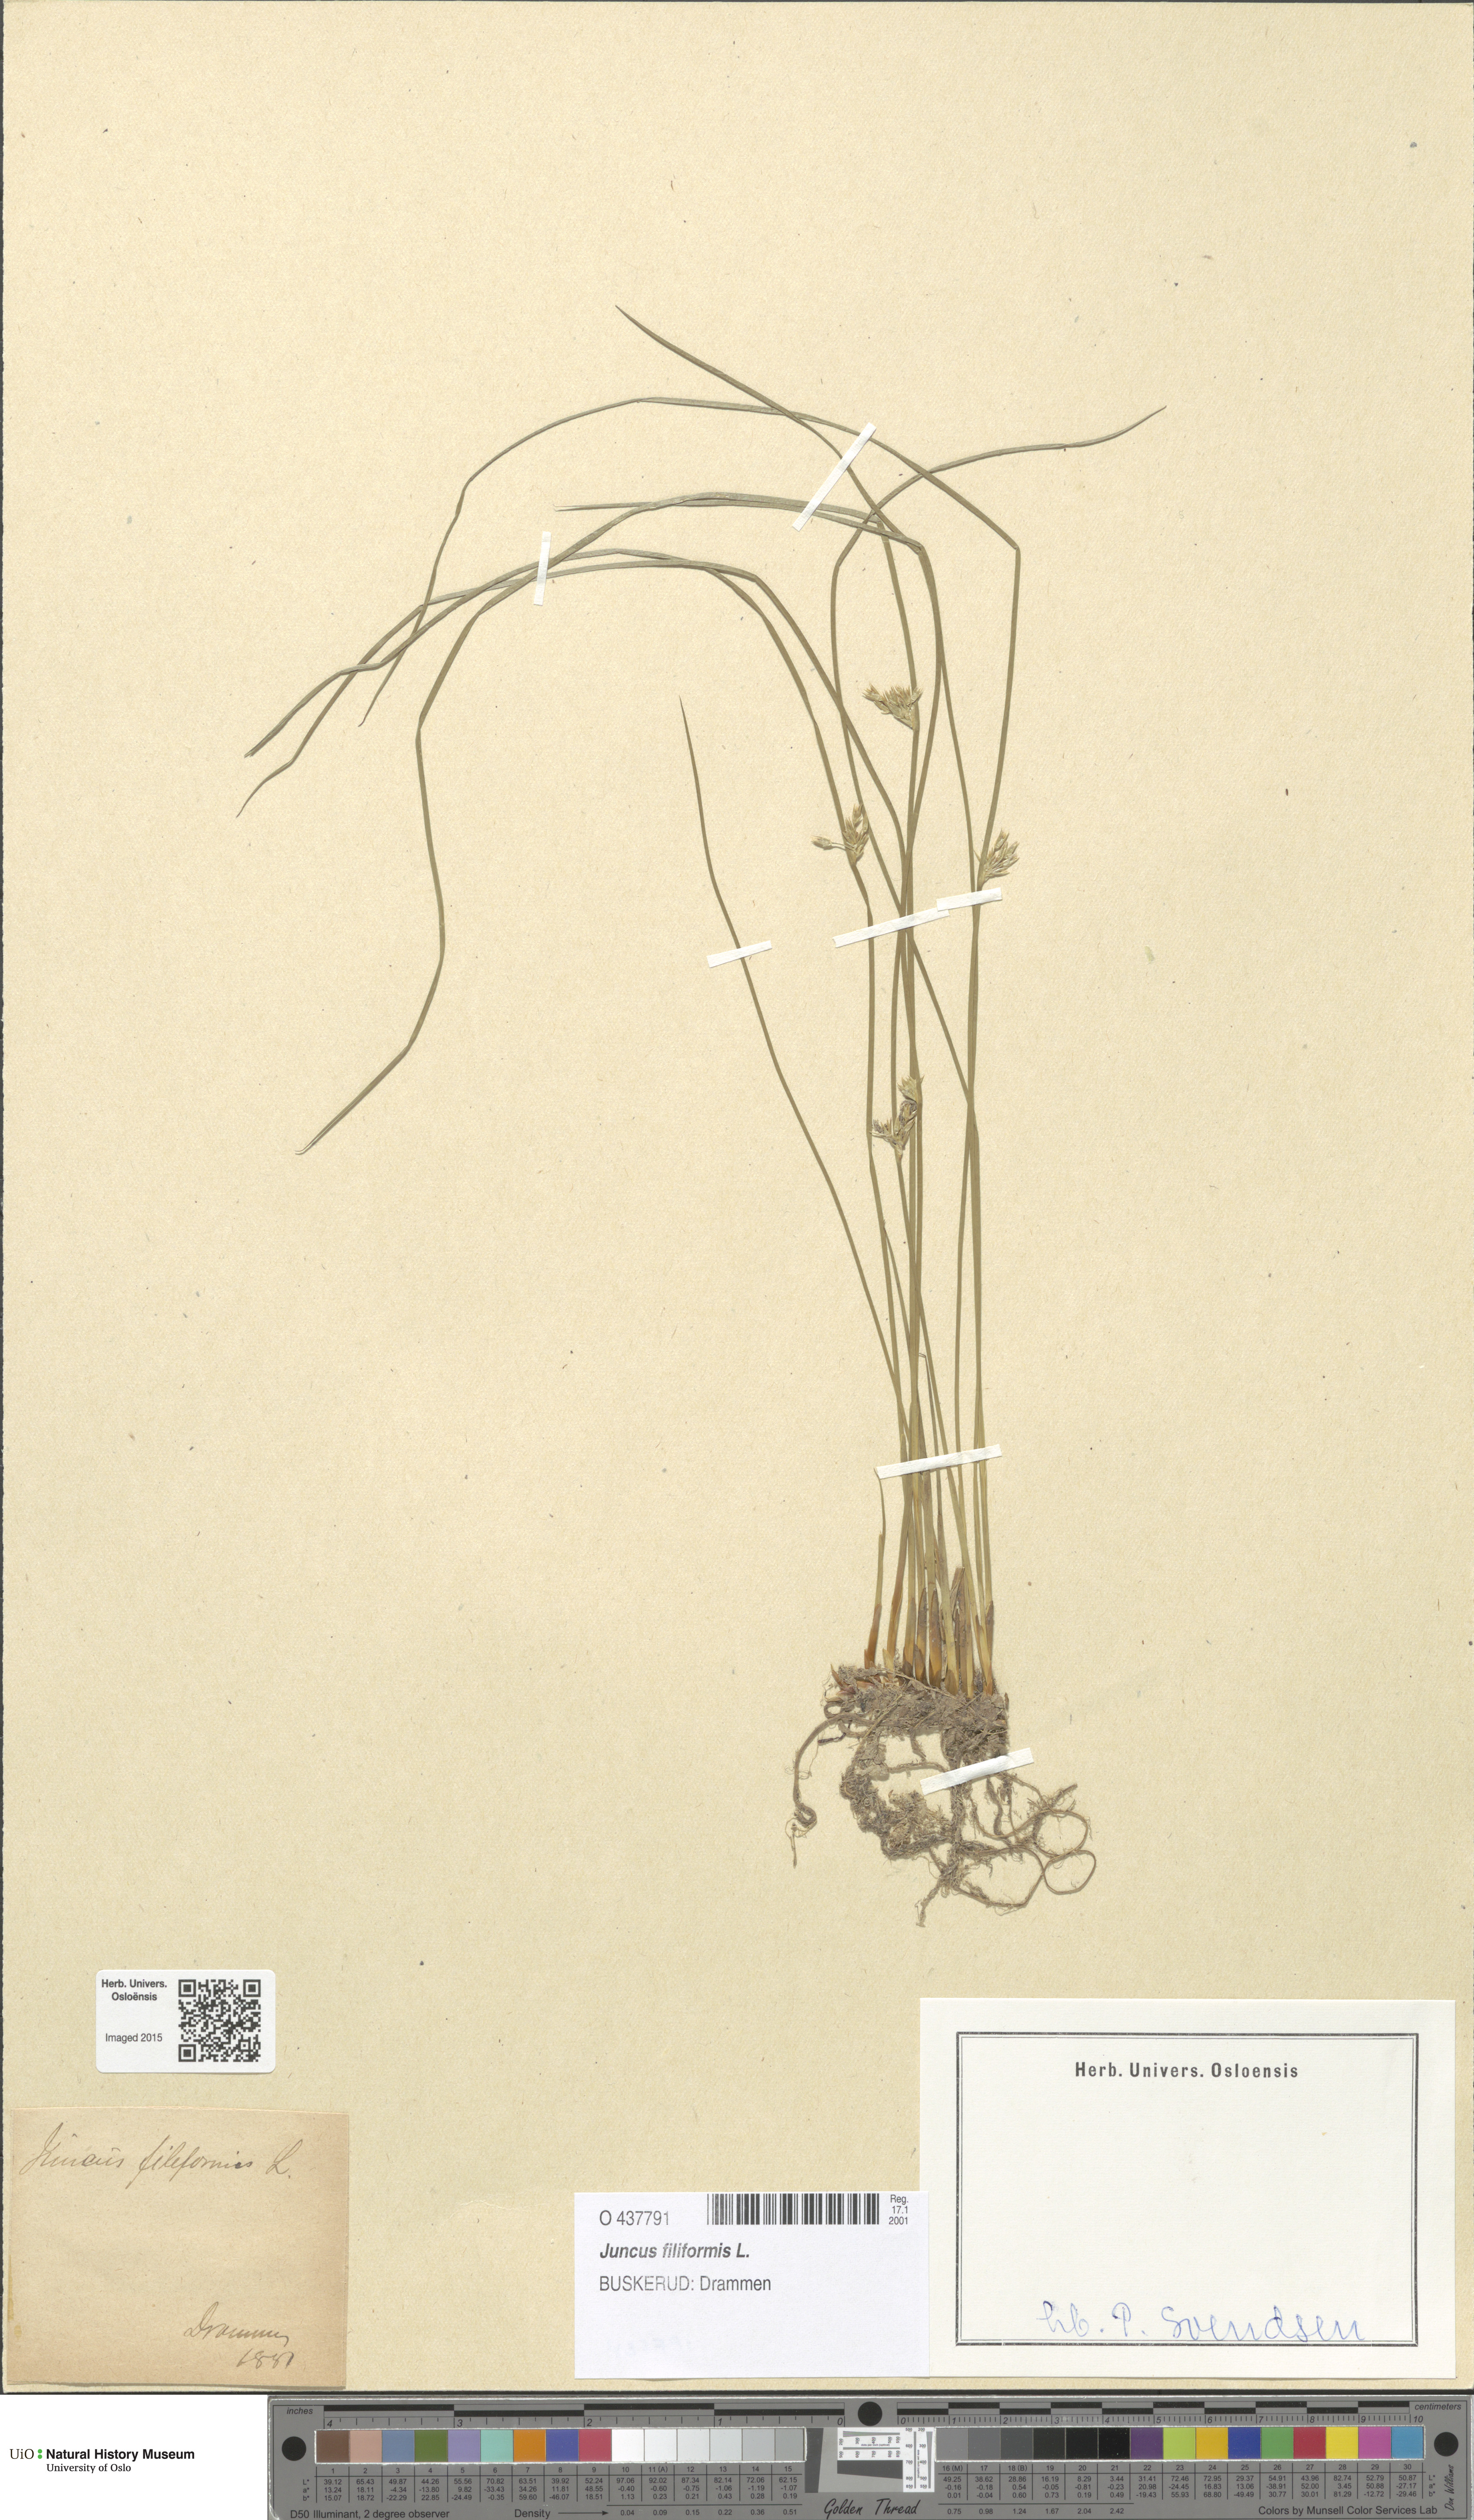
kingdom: Plantae
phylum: Tracheophyta
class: Liliopsida
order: Poales
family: Juncaceae
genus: Juncus
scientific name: Juncus filiformis
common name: Thread rush
